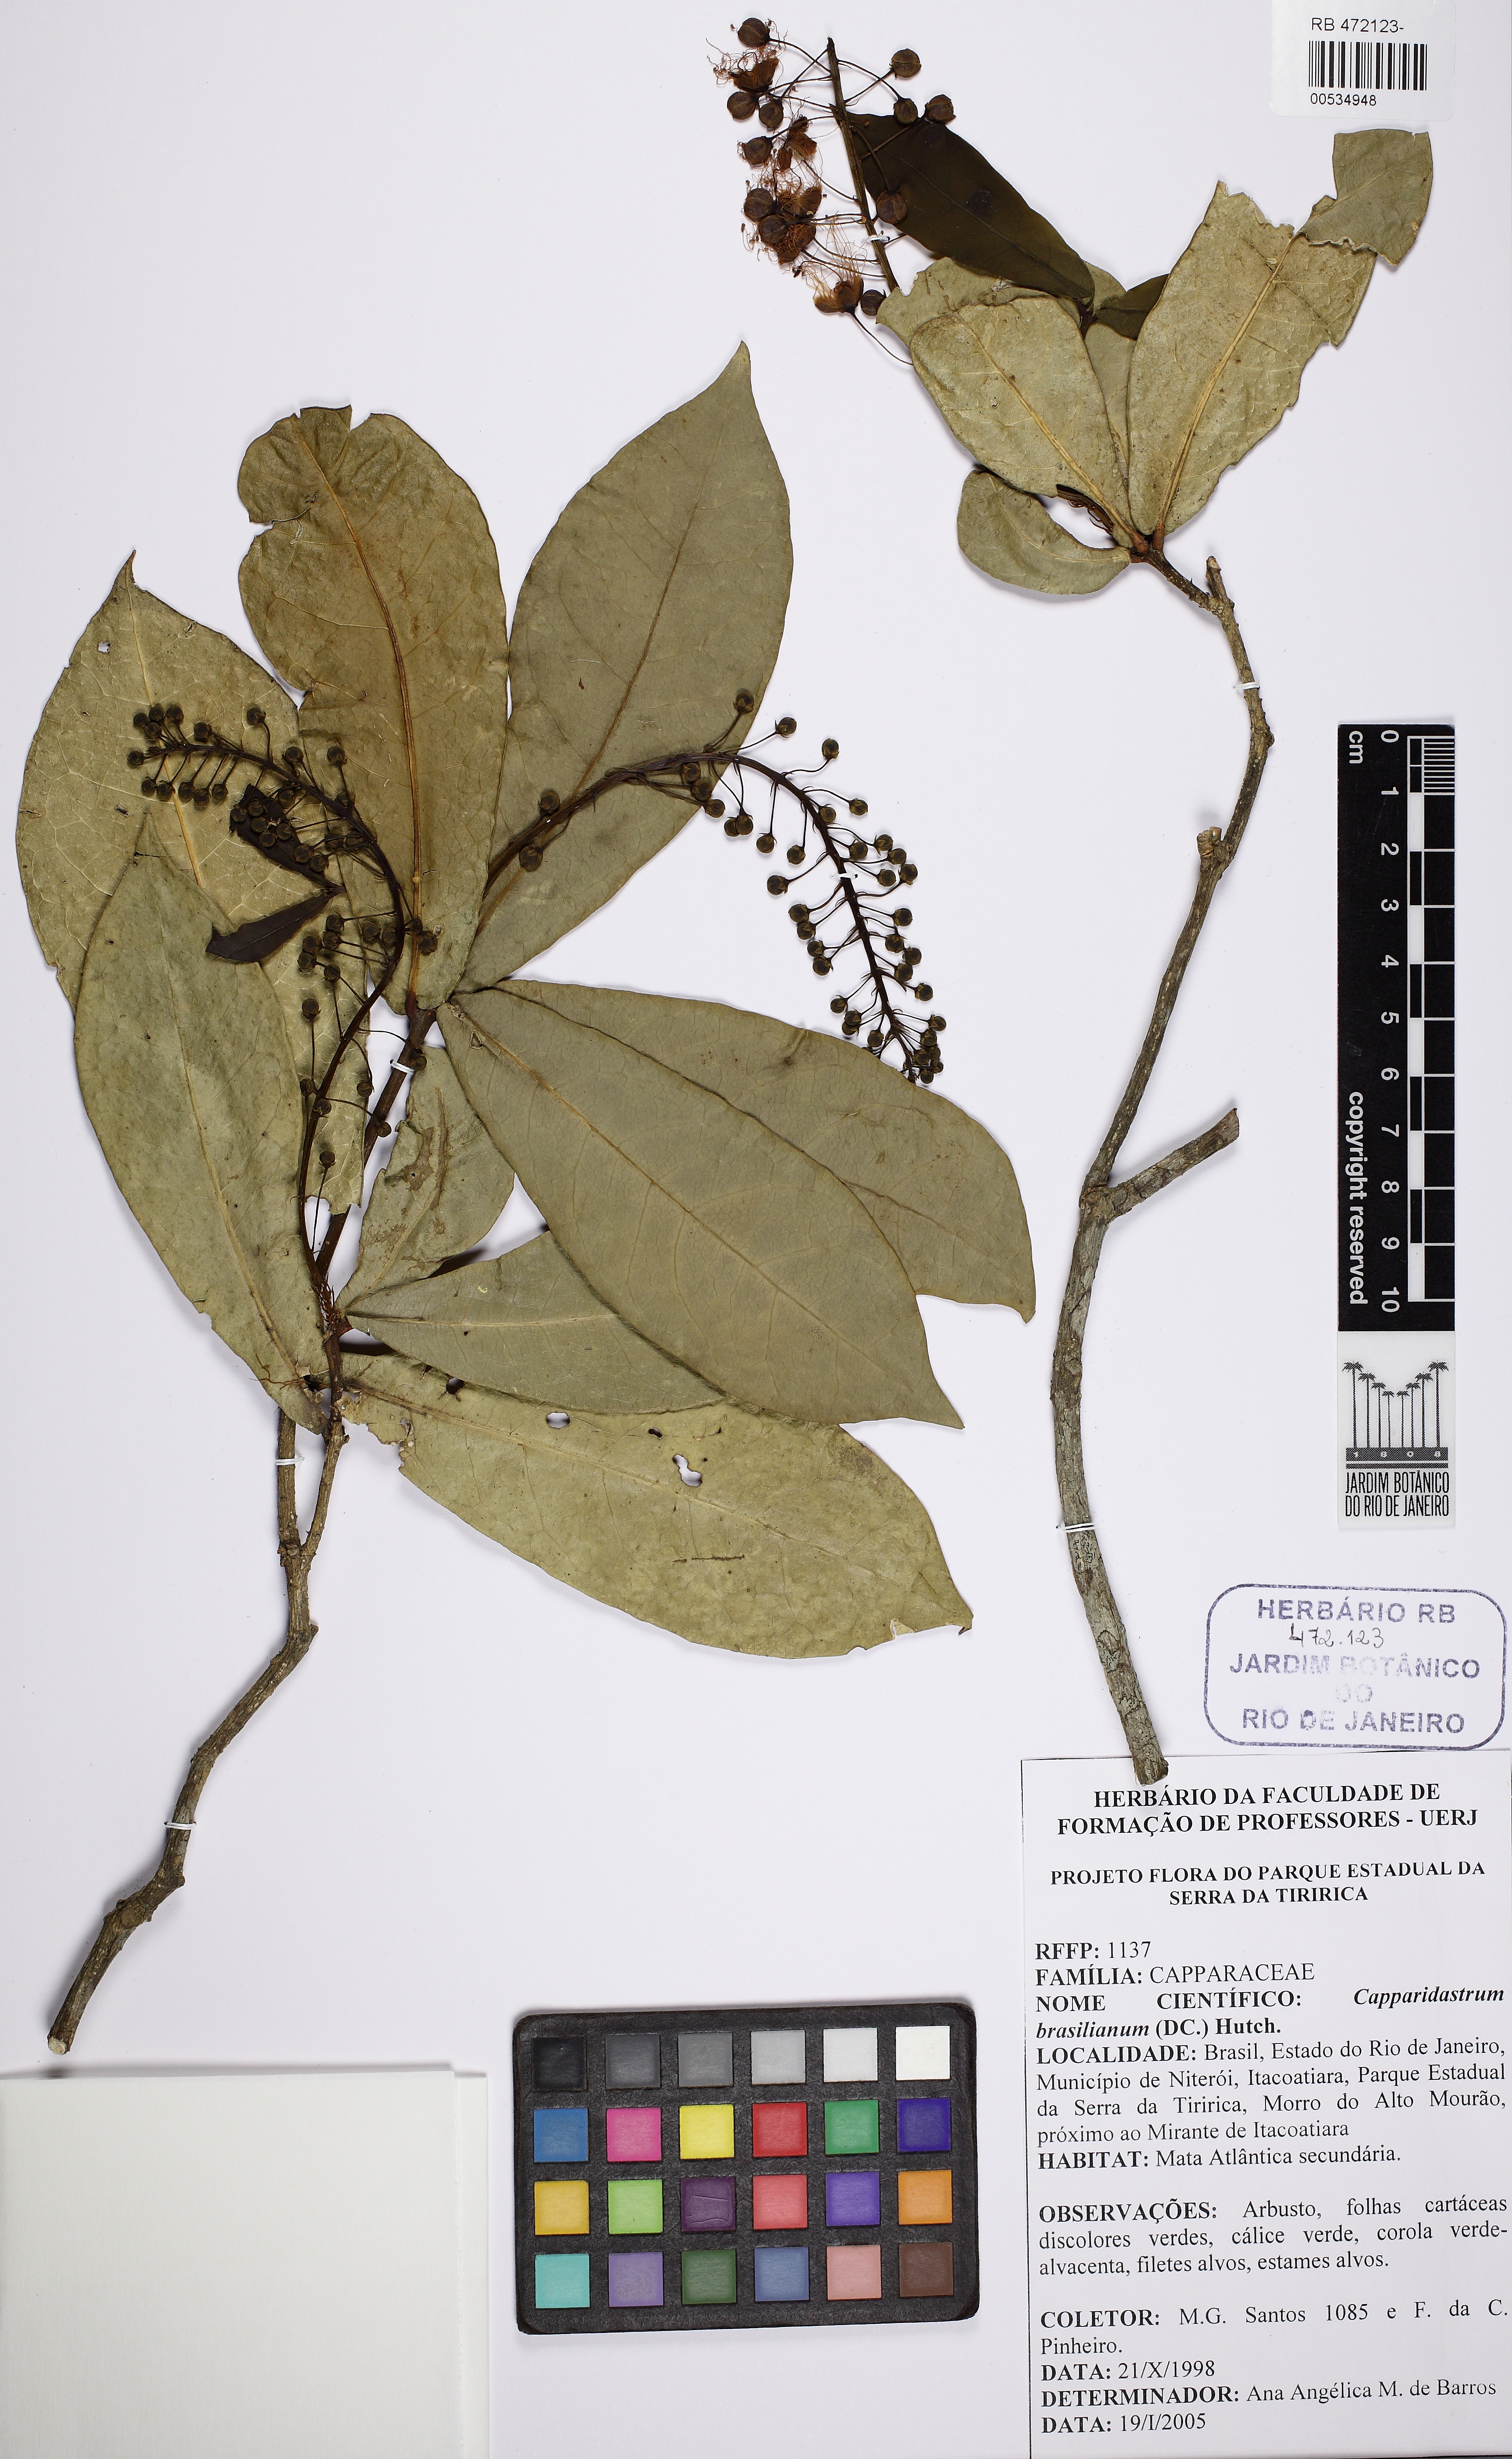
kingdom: Plantae
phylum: Tracheophyta
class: Magnoliopsida
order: Brassicales
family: Capparaceae
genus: Monilicarpa
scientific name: Monilicarpa brasiliana
